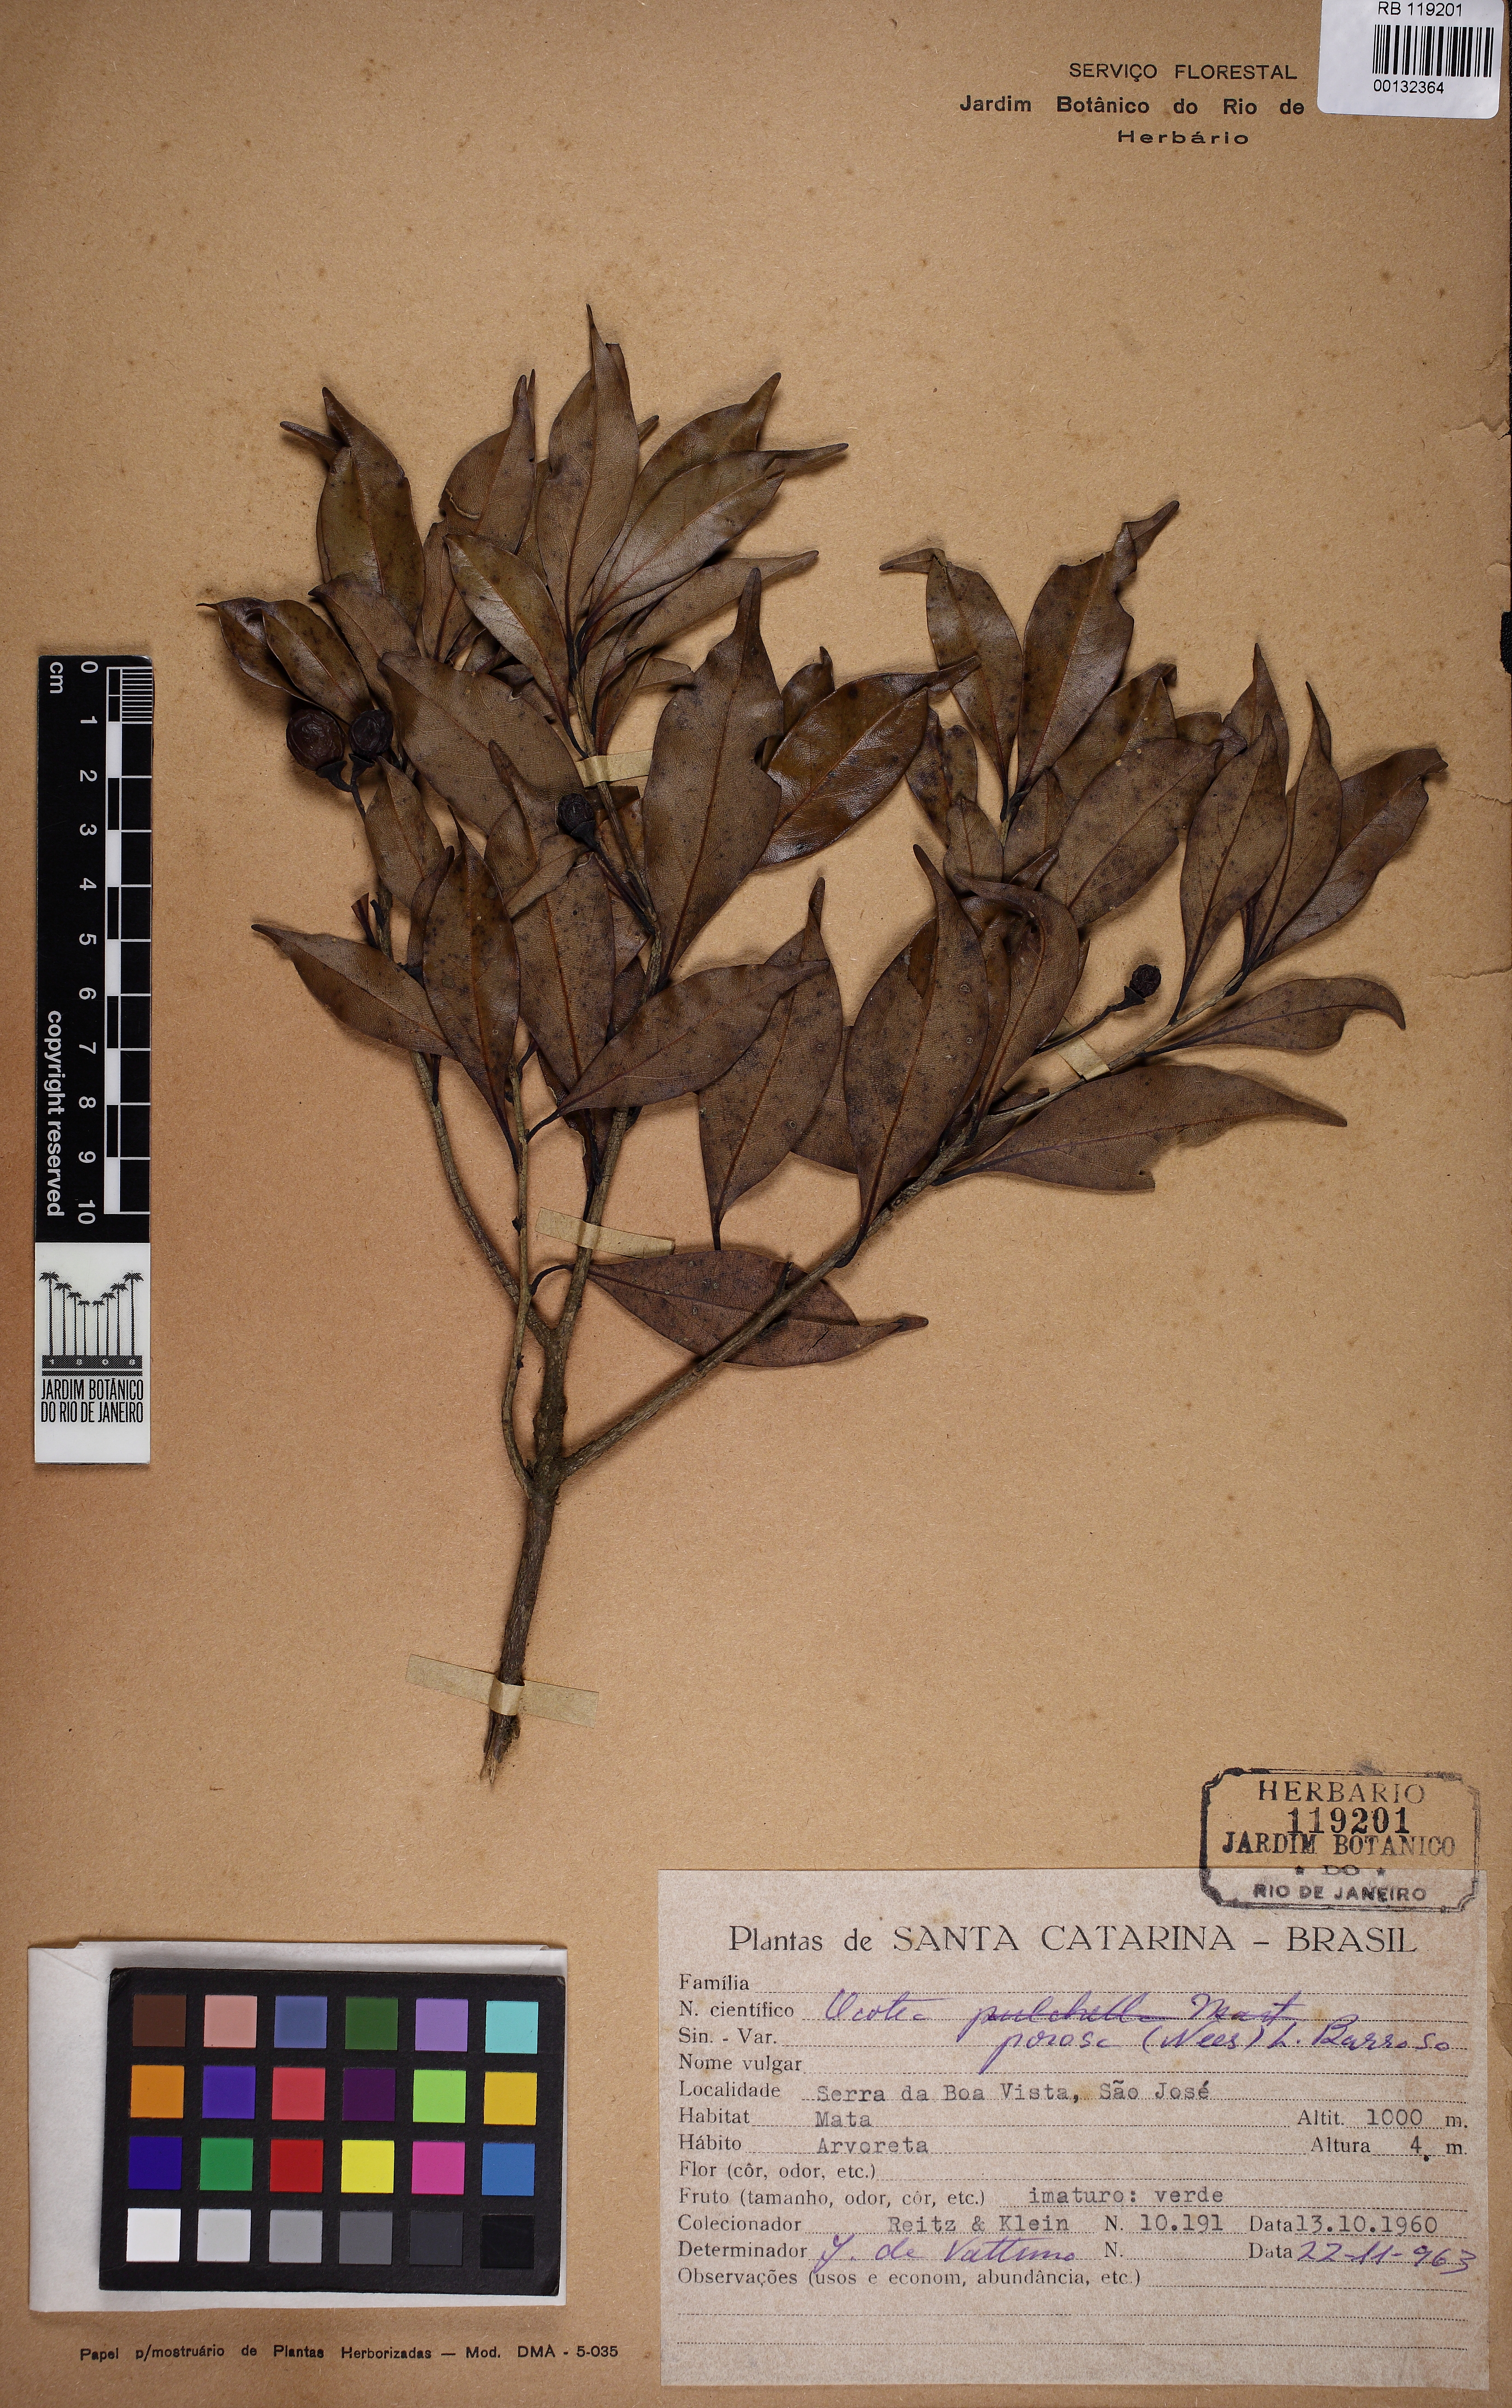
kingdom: Plantae
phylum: Tracheophyta
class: Magnoliopsida
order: Laurales
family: Lauraceae
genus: Ocotea
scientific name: Ocotea porosa
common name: Brazilian-walnut
